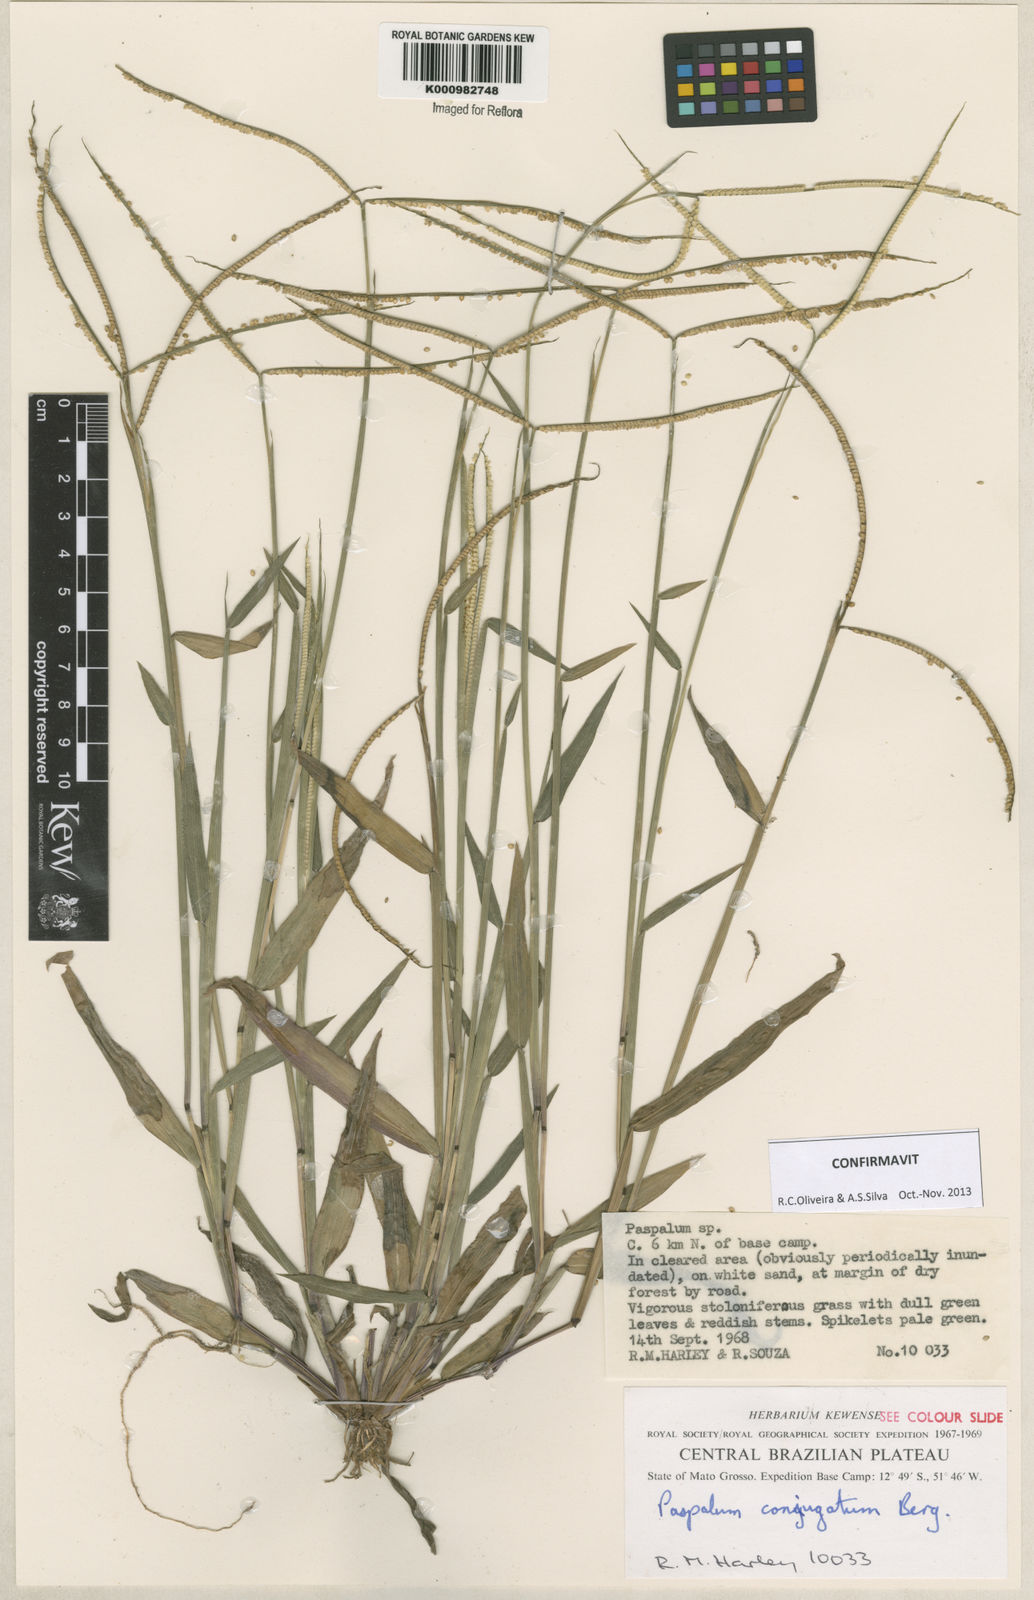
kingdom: Plantae
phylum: Tracheophyta
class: Liliopsida
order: Poales
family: Poaceae
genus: Paspalum
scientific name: Paspalum conjugatum
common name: Hilograss
